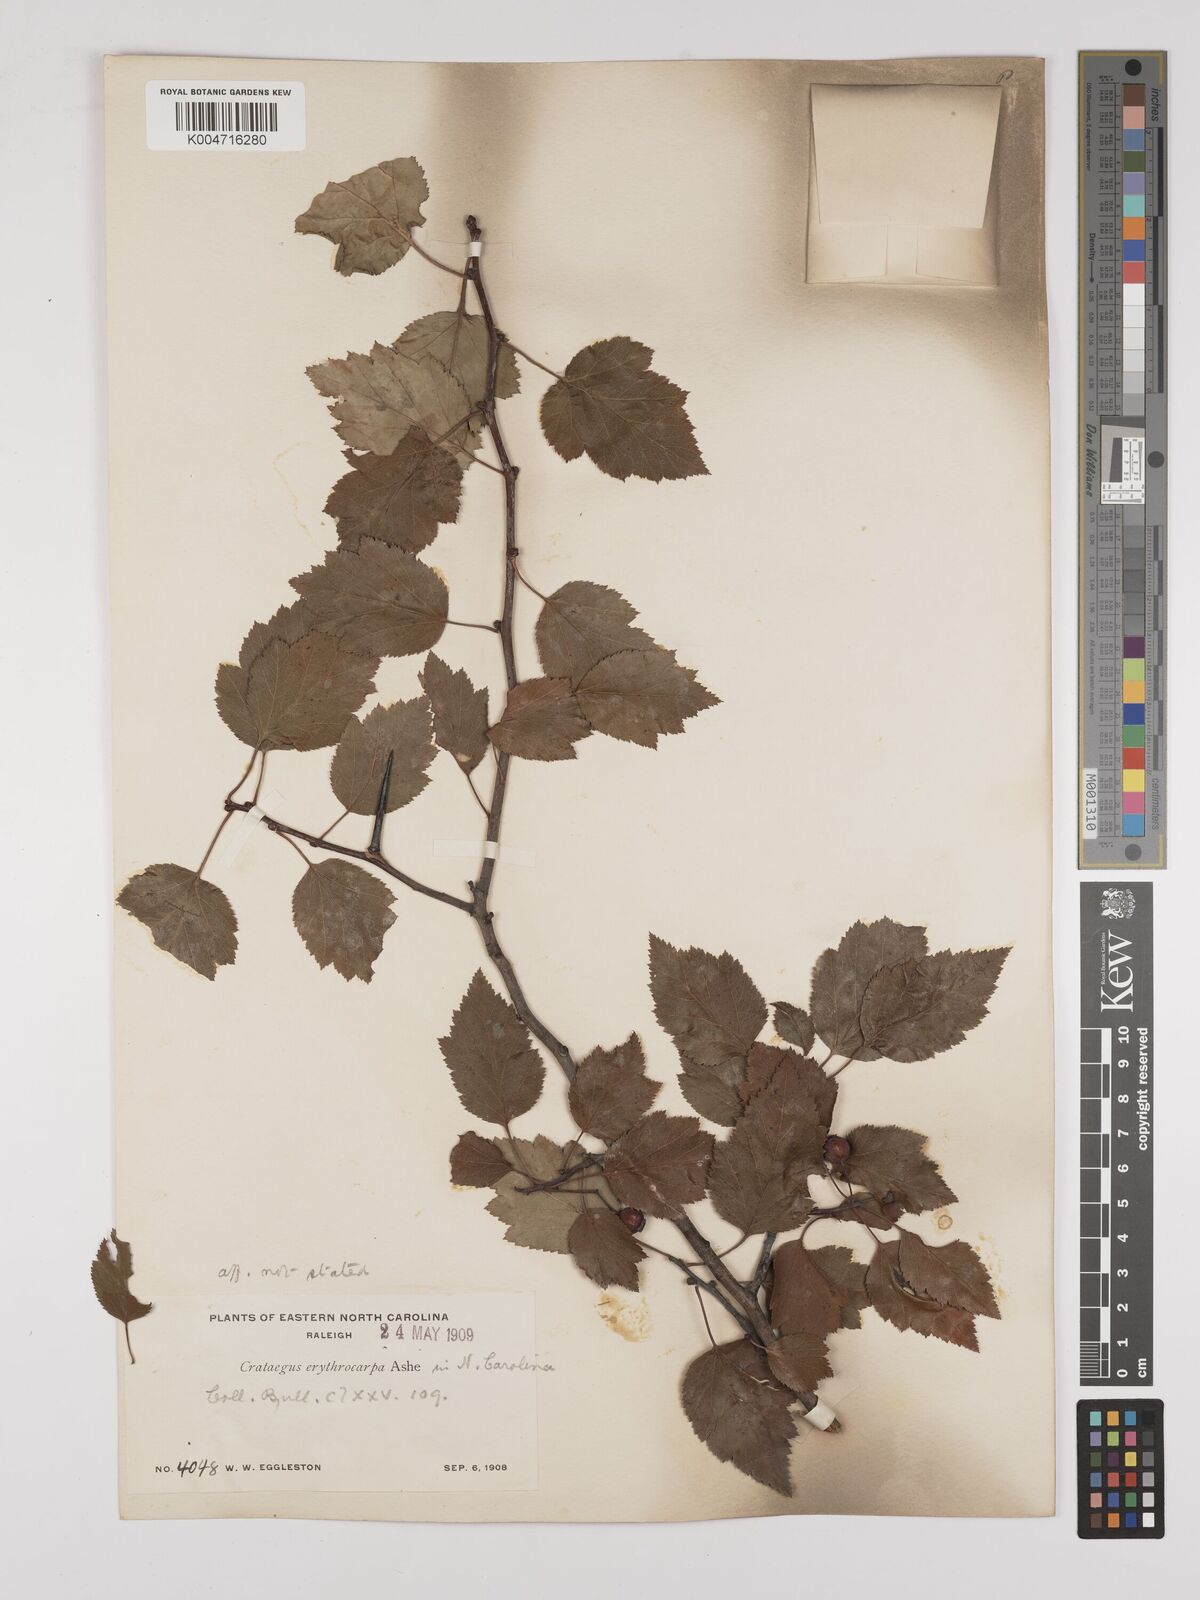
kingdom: Plantae
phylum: Tracheophyta
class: Magnoliopsida
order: Rosales
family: Rosaceae
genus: Crataegus
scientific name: Crataegus erythrocarpa
